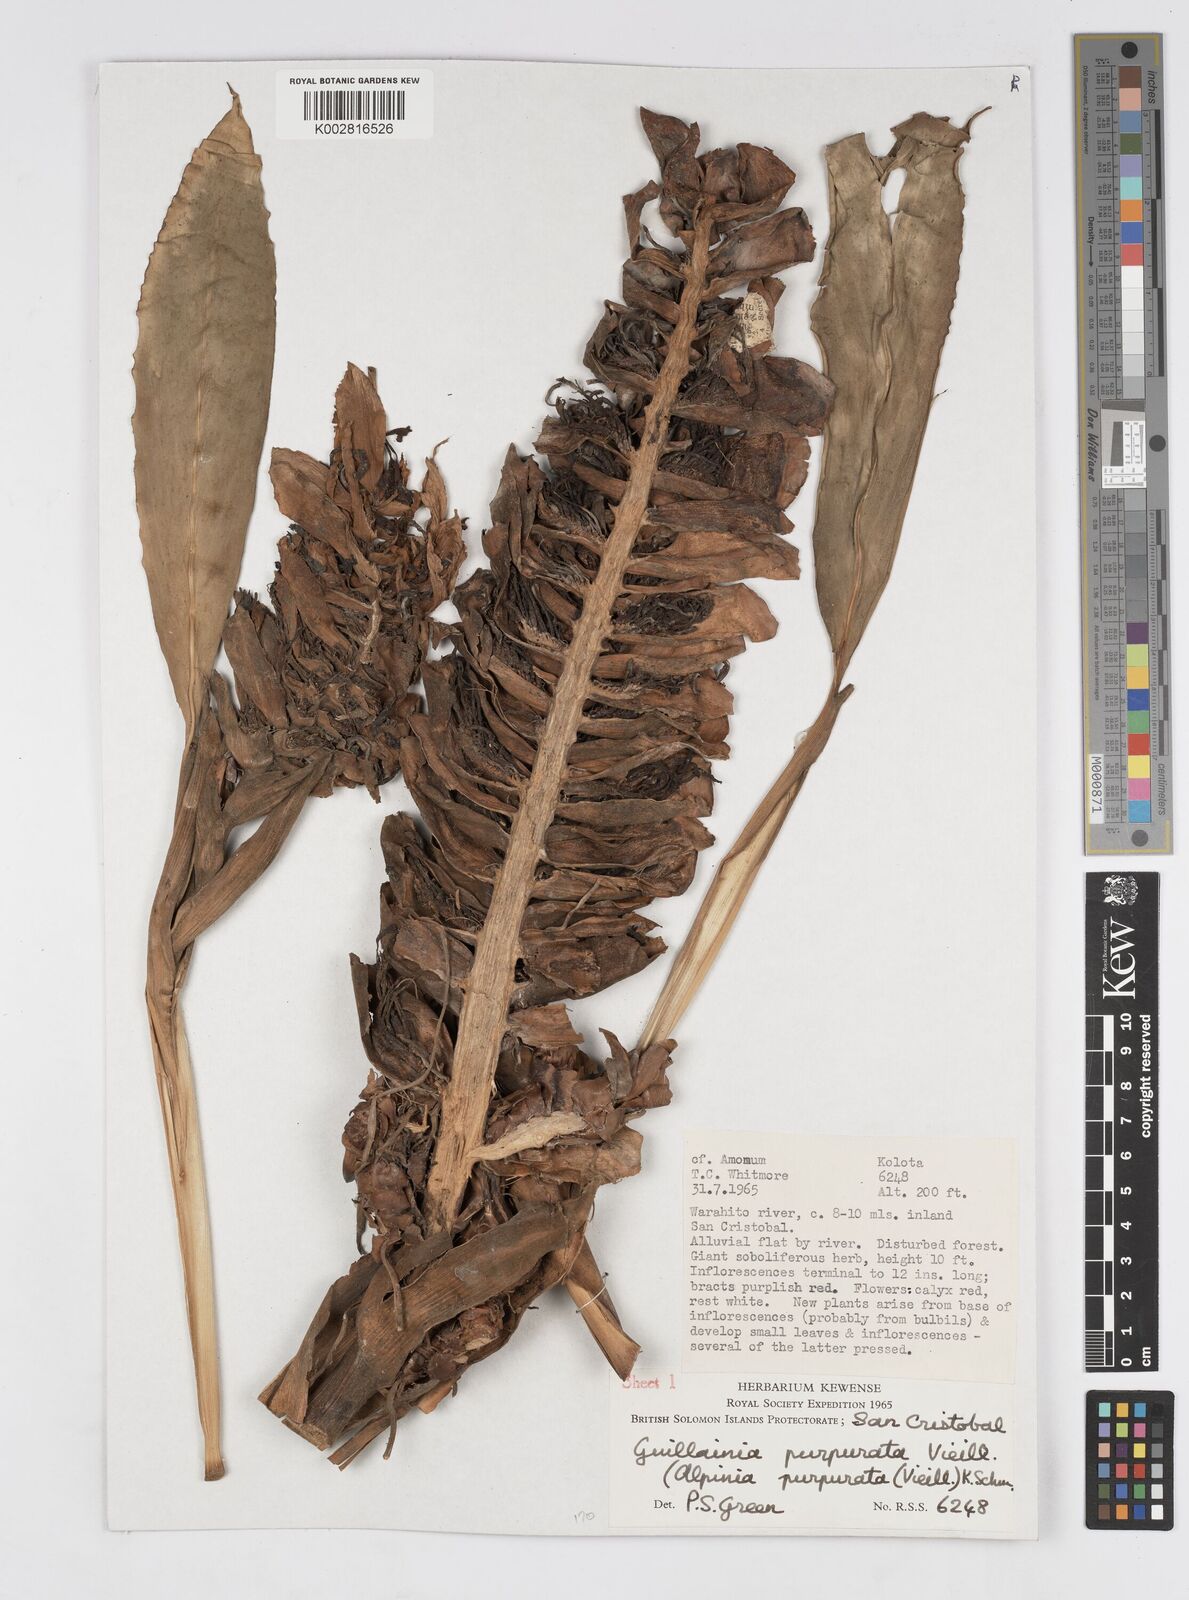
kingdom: Plantae
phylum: Tracheophyta
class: Liliopsida
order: Zingiberales
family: Zingiberaceae
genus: Alpinia
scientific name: Alpinia purpurata
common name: Red ginger
